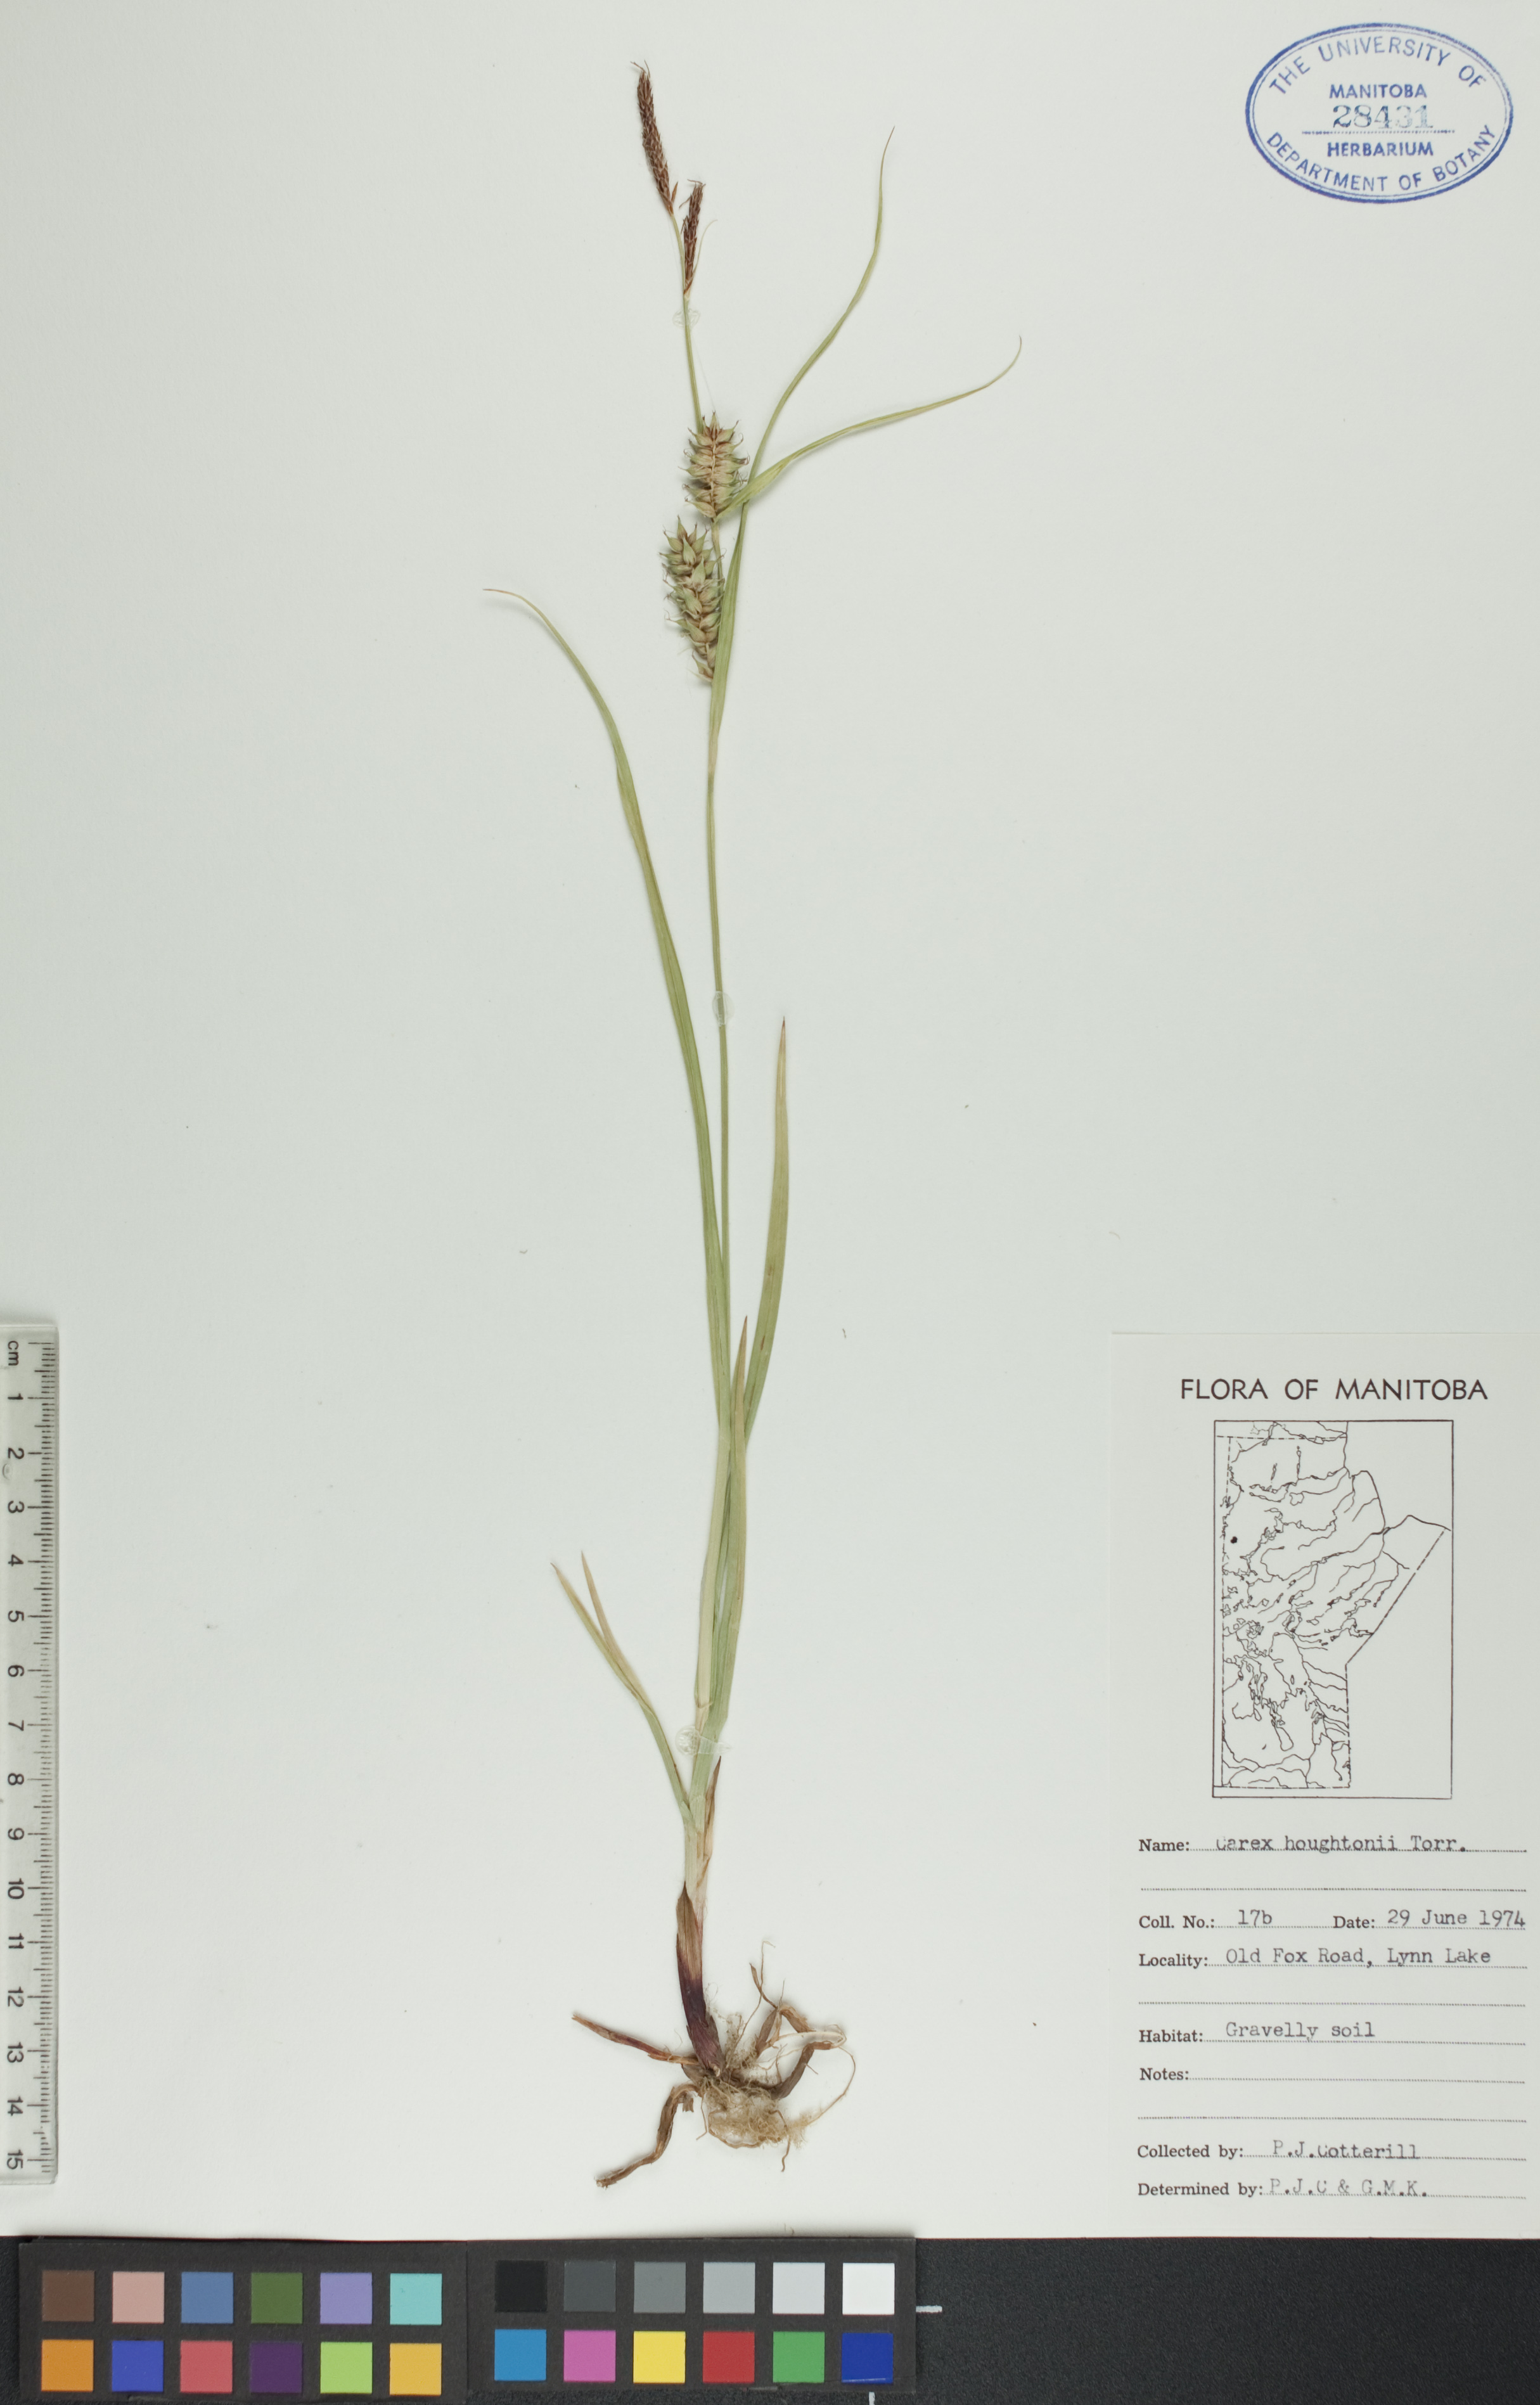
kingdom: Plantae
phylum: Tracheophyta
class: Liliopsida
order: Poales
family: Cyperaceae
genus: Carex
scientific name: Carex houghtoniana
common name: Houghton's sedge
